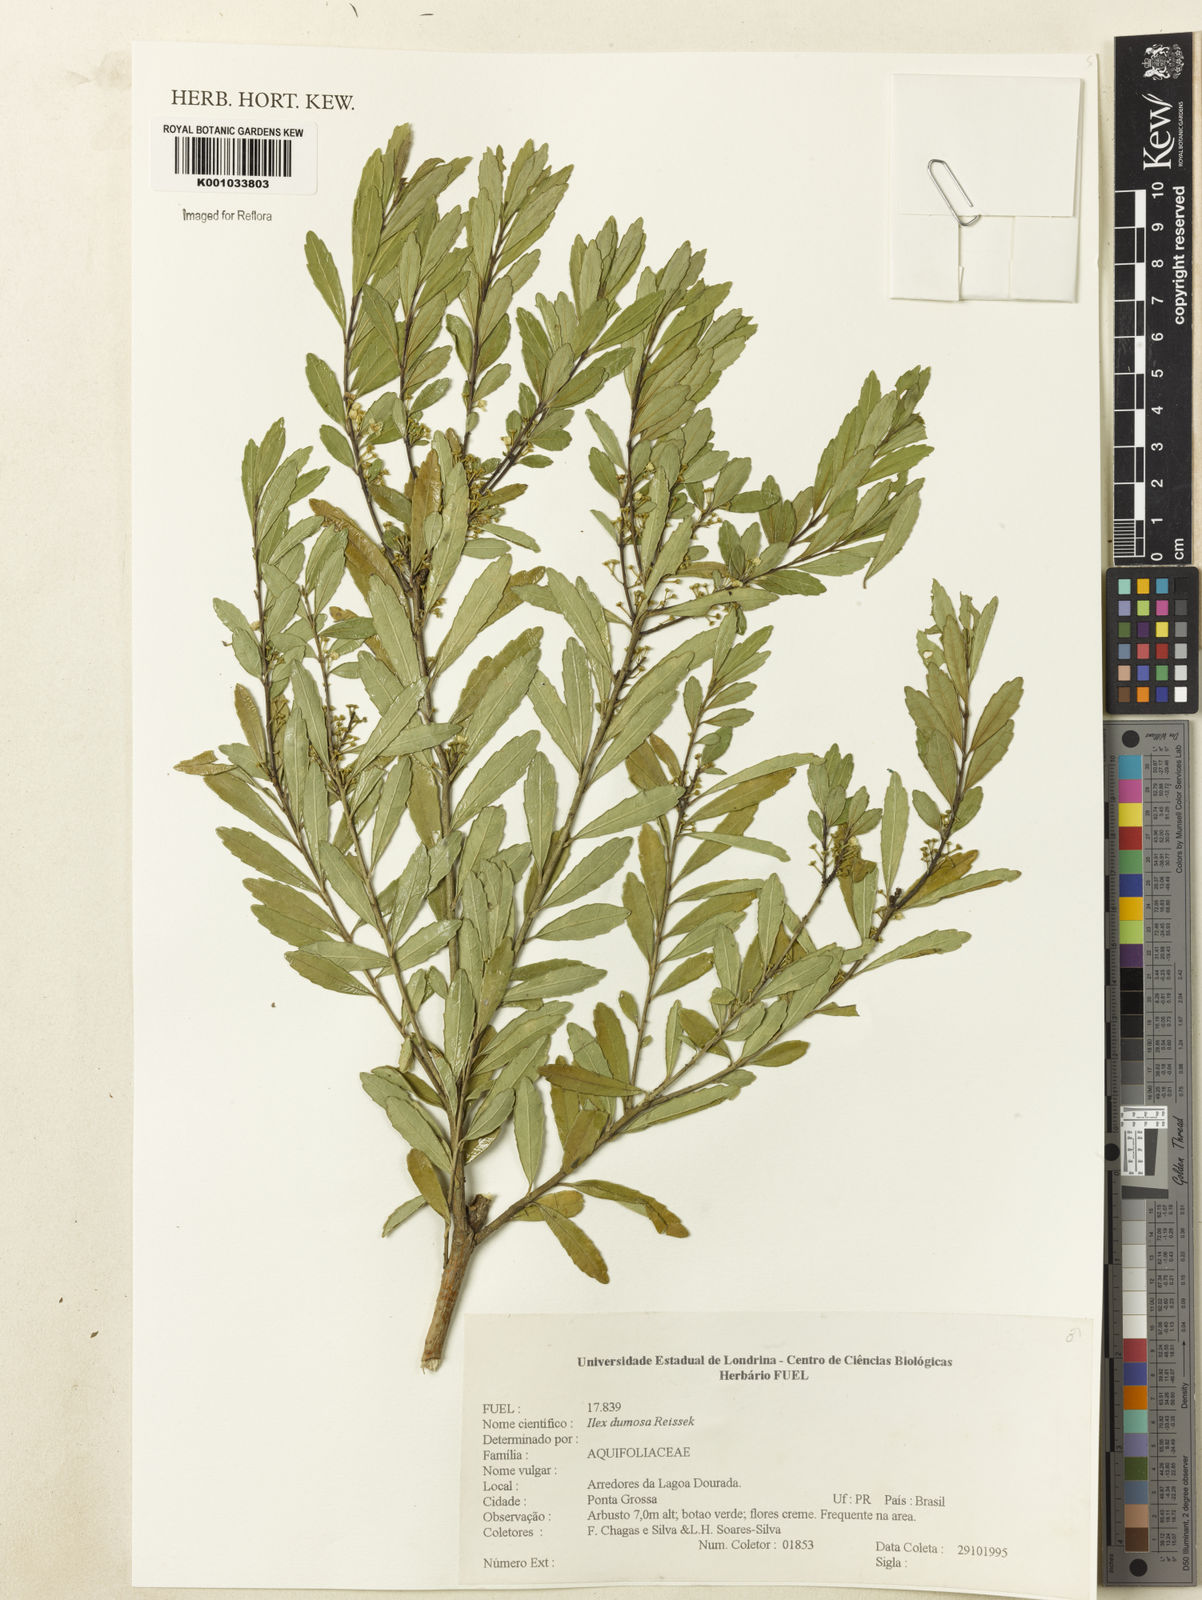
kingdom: Plantae
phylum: Tracheophyta
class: Magnoliopsida
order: Aquifoliales
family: Aquifoliaceae
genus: Ilex
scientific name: Ilex dumosa
